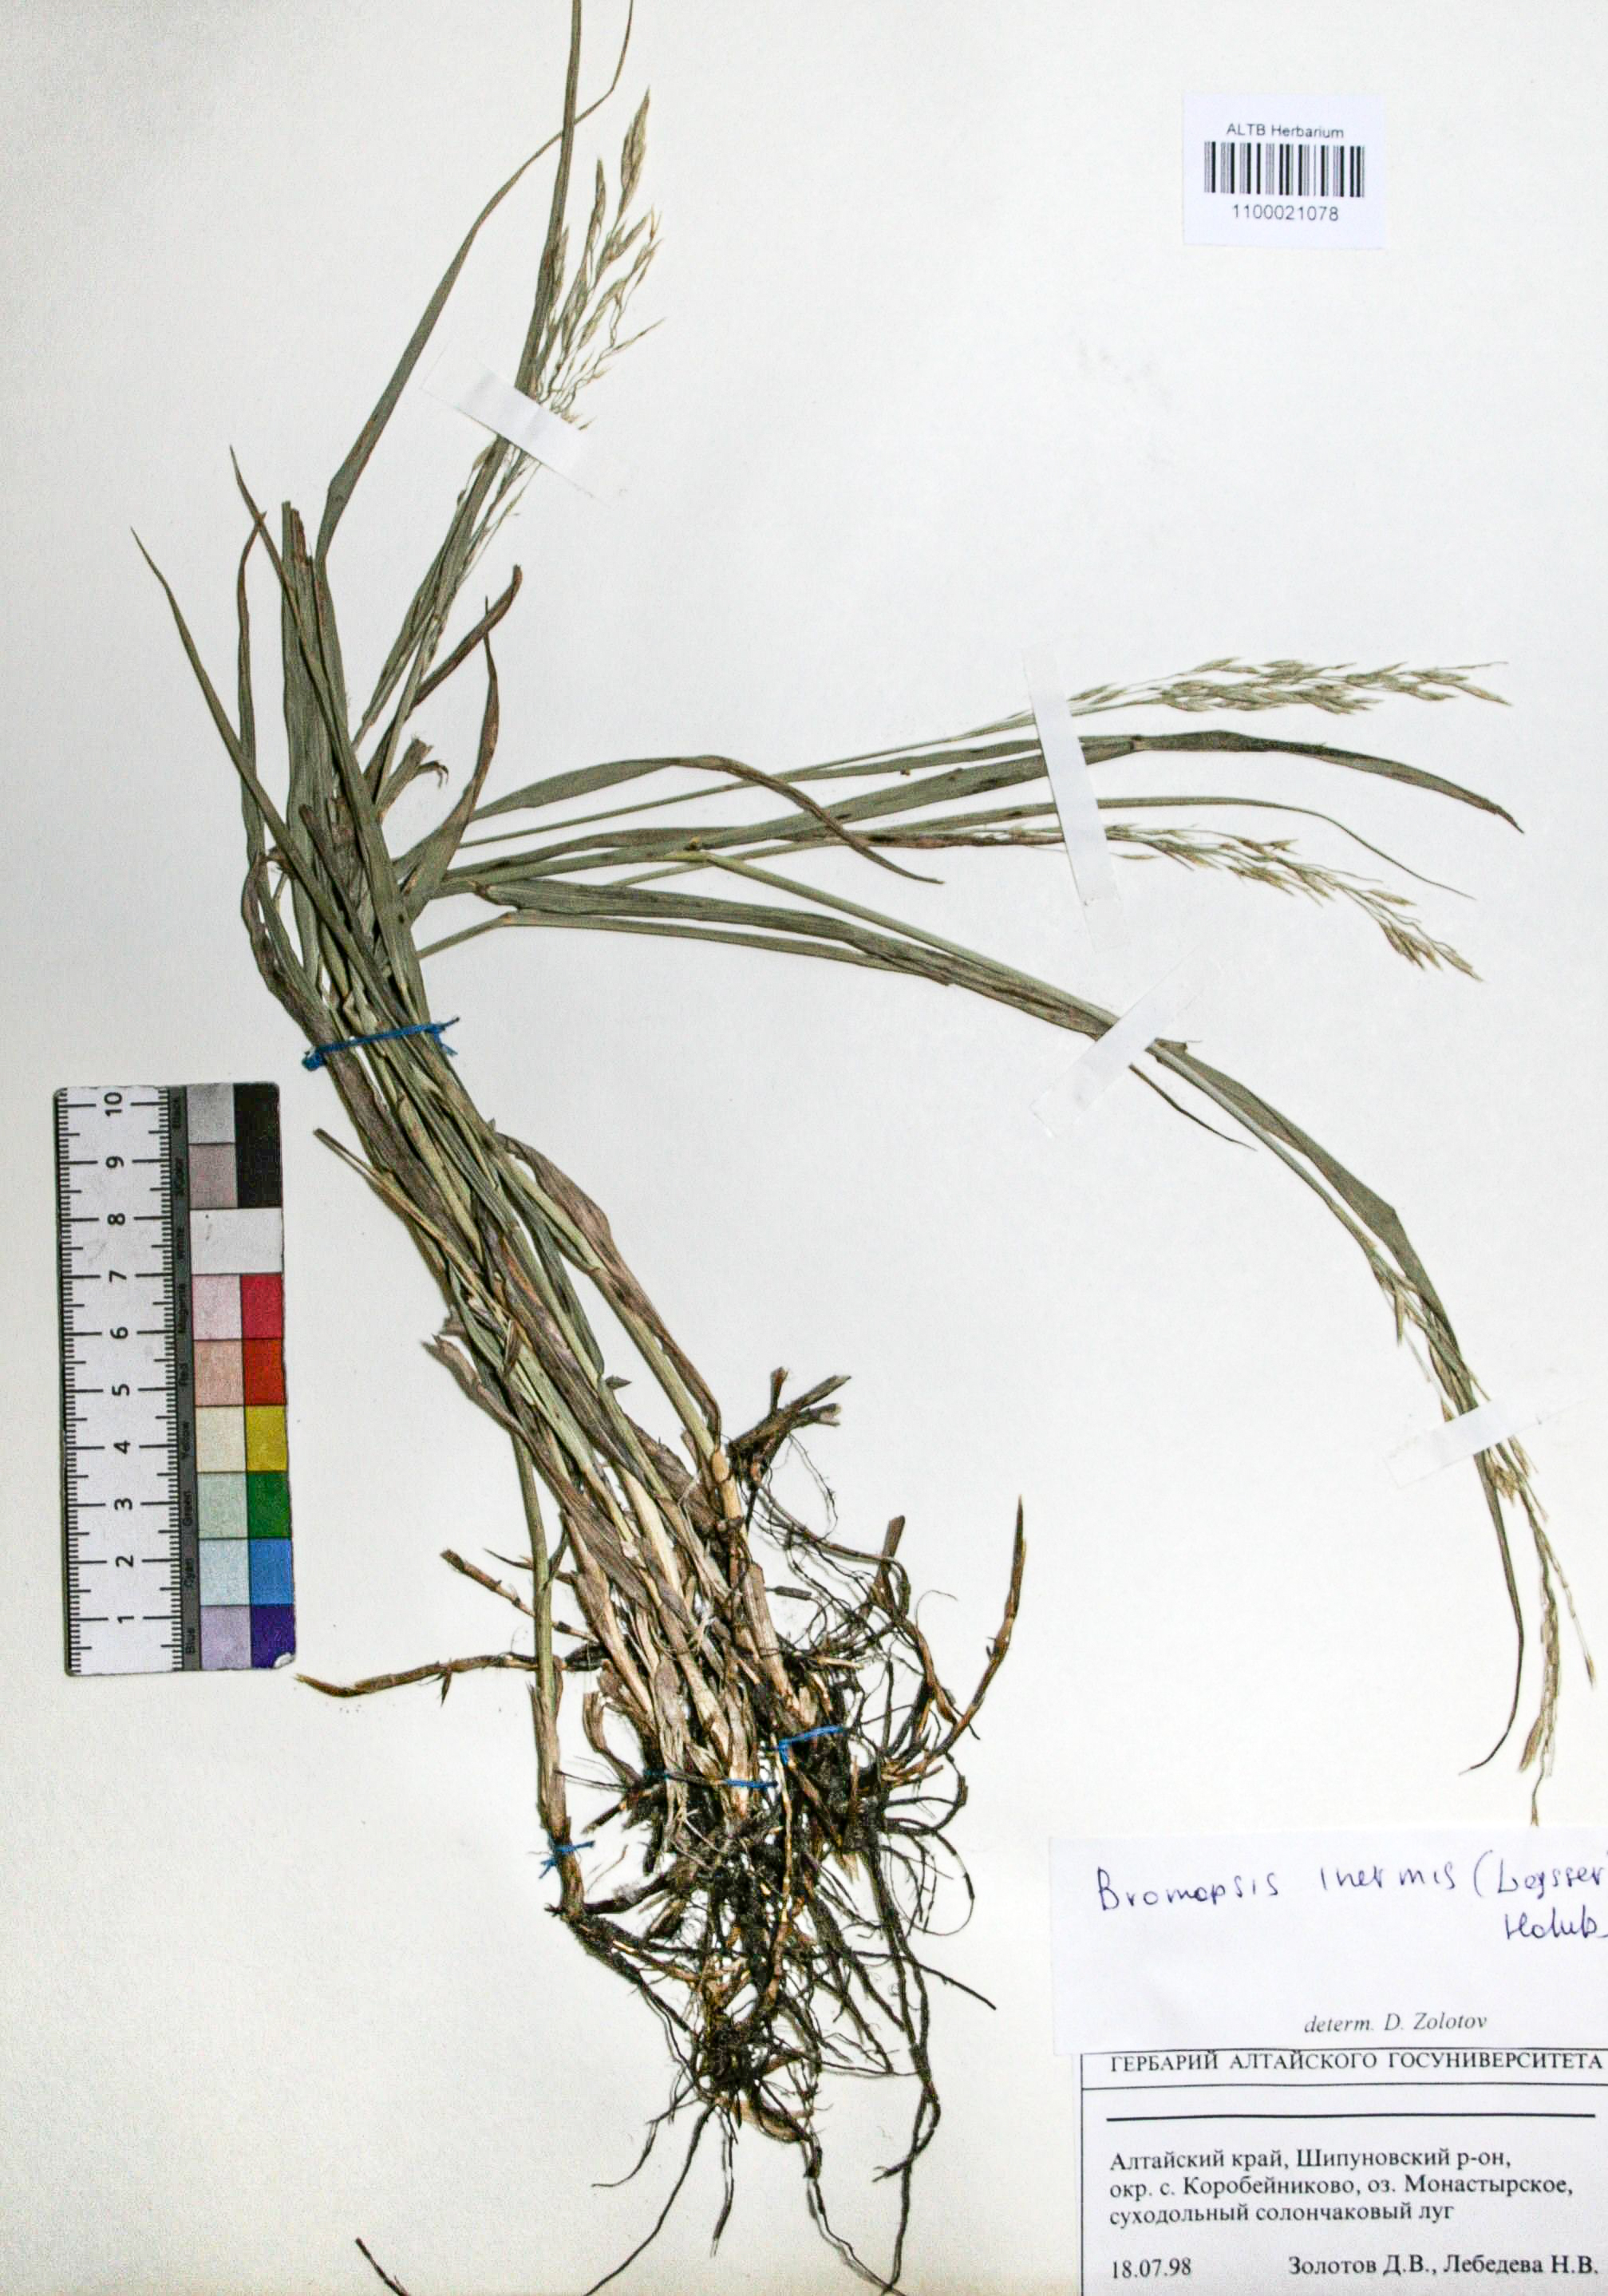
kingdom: Plantae
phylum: Tracheophyta
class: Liliopsida
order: Poales
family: Poaceae
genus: Bromus
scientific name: Bromus inermis
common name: Smooth brome
